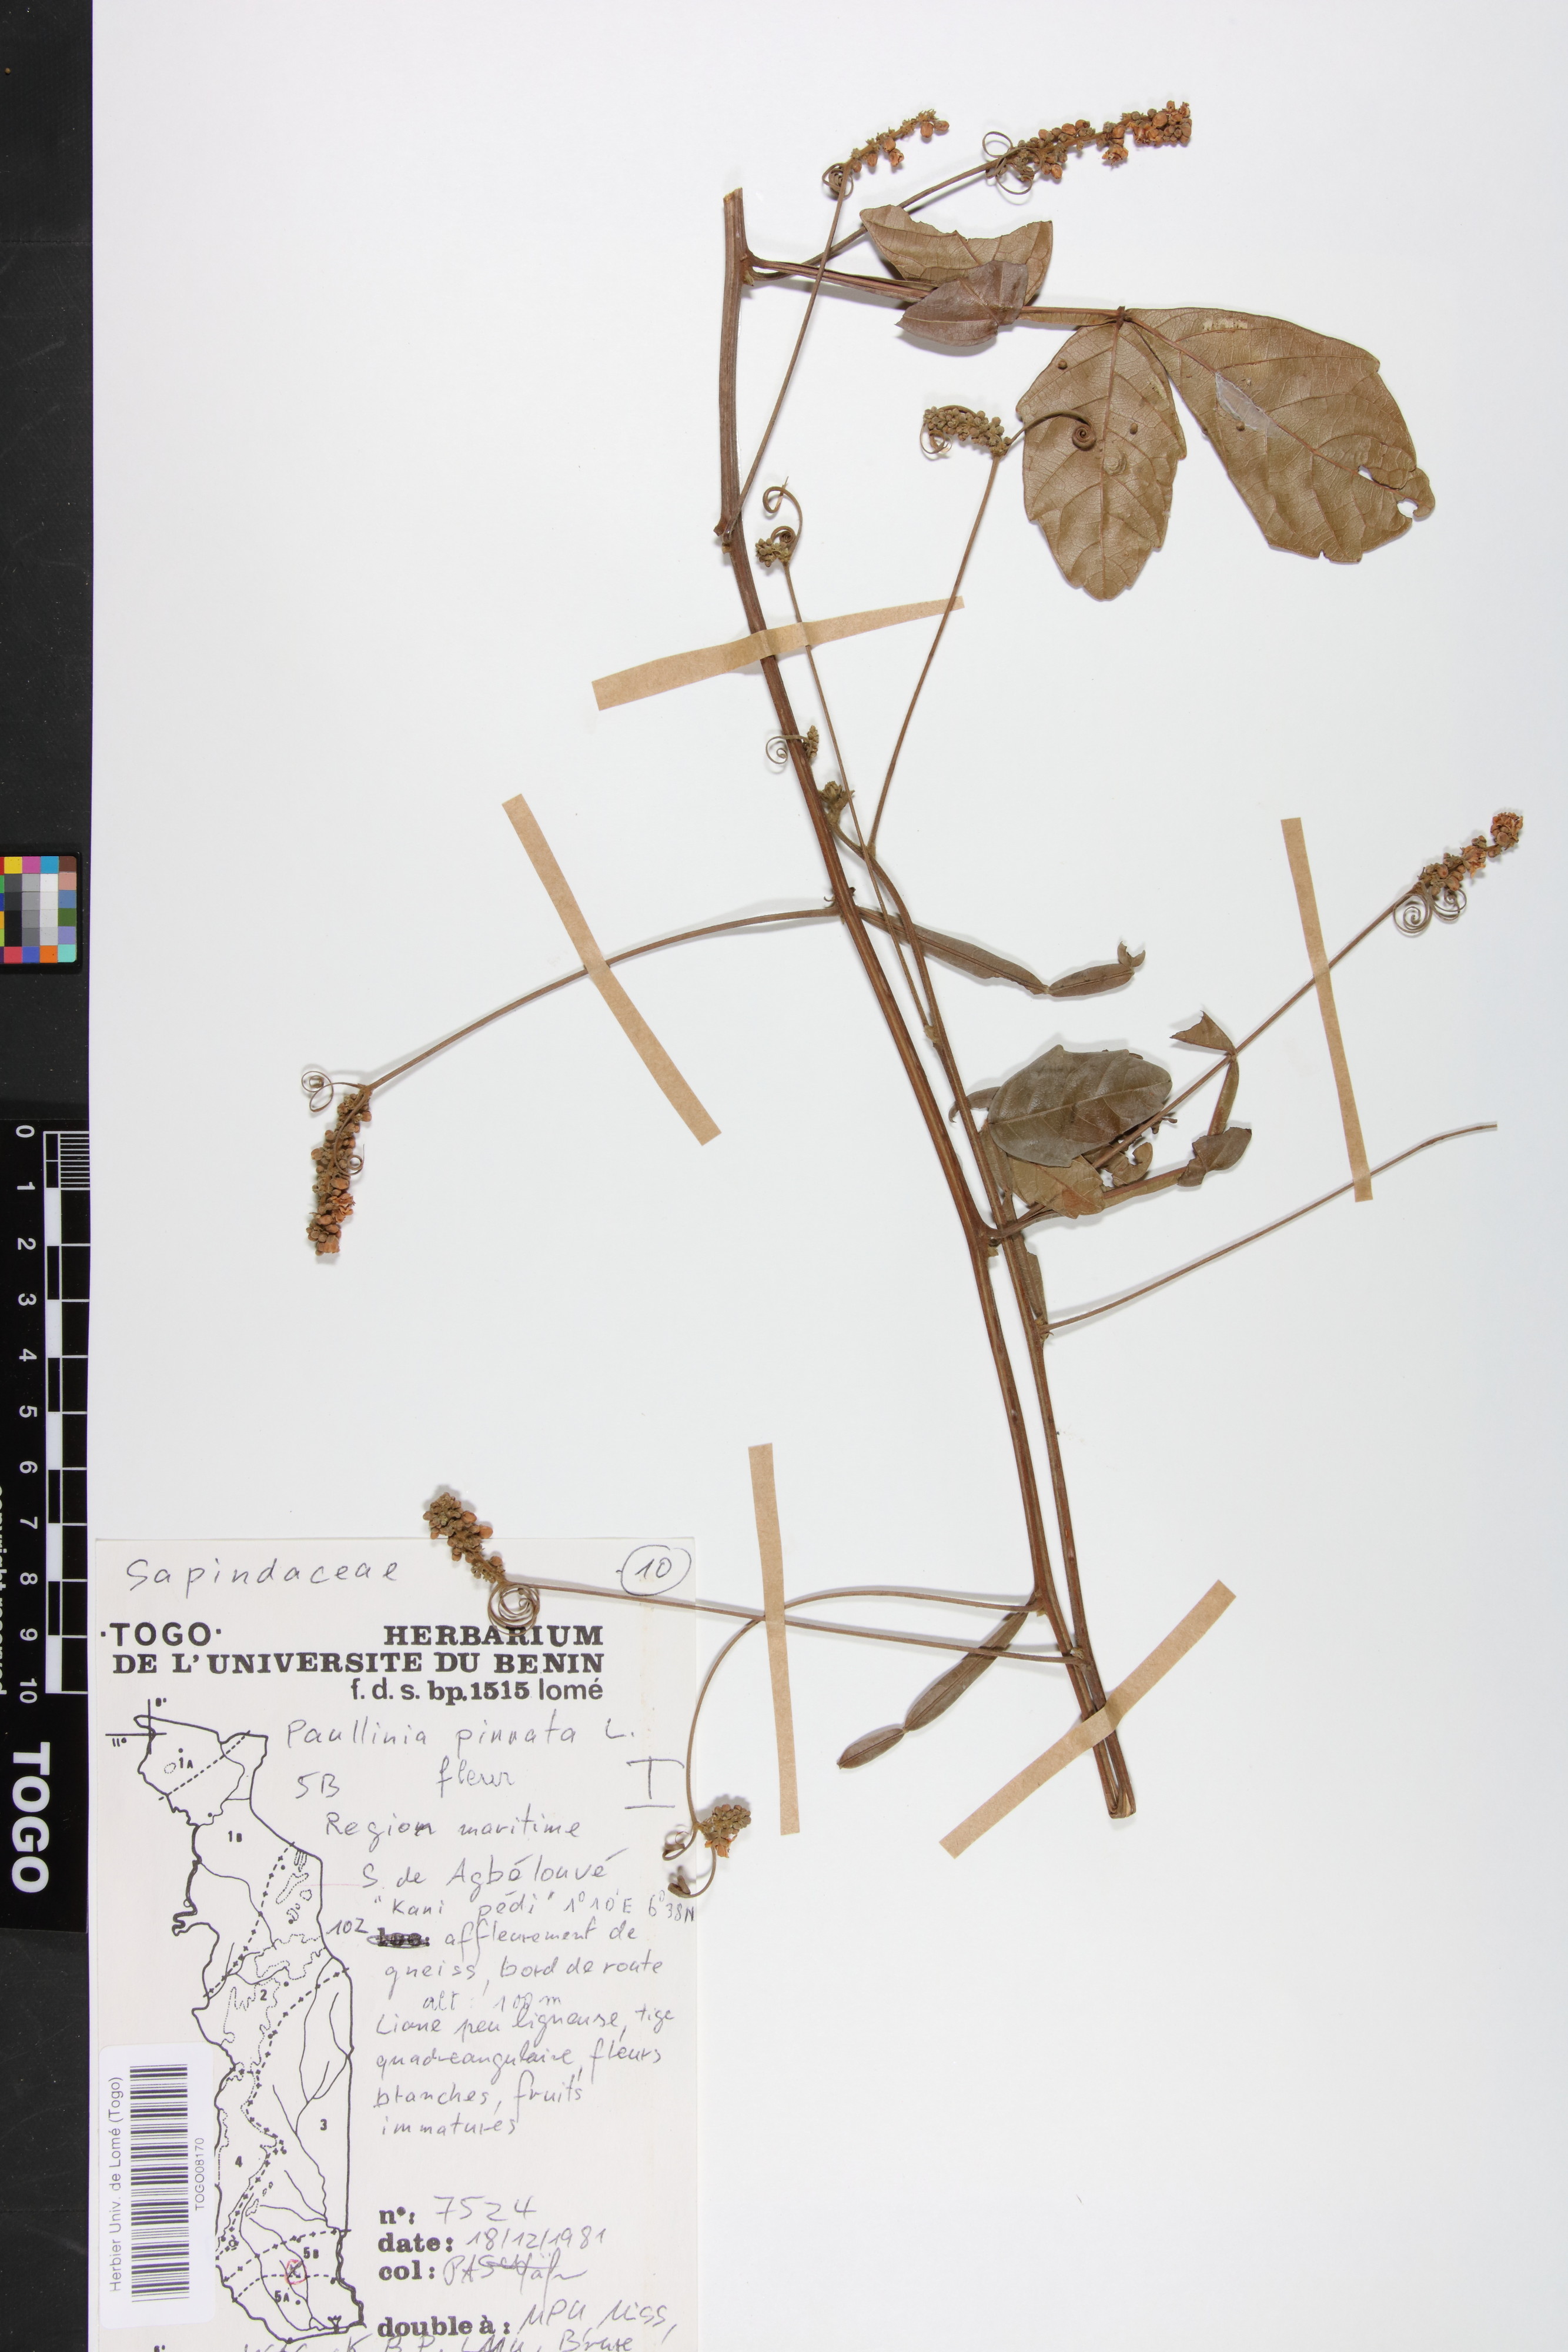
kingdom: Plantae
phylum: Tracheophyta
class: Magnoliopsida
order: Sapindales
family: Sapindaceae
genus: Paullinia
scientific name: Paullinia pinnata
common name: Barbasco
